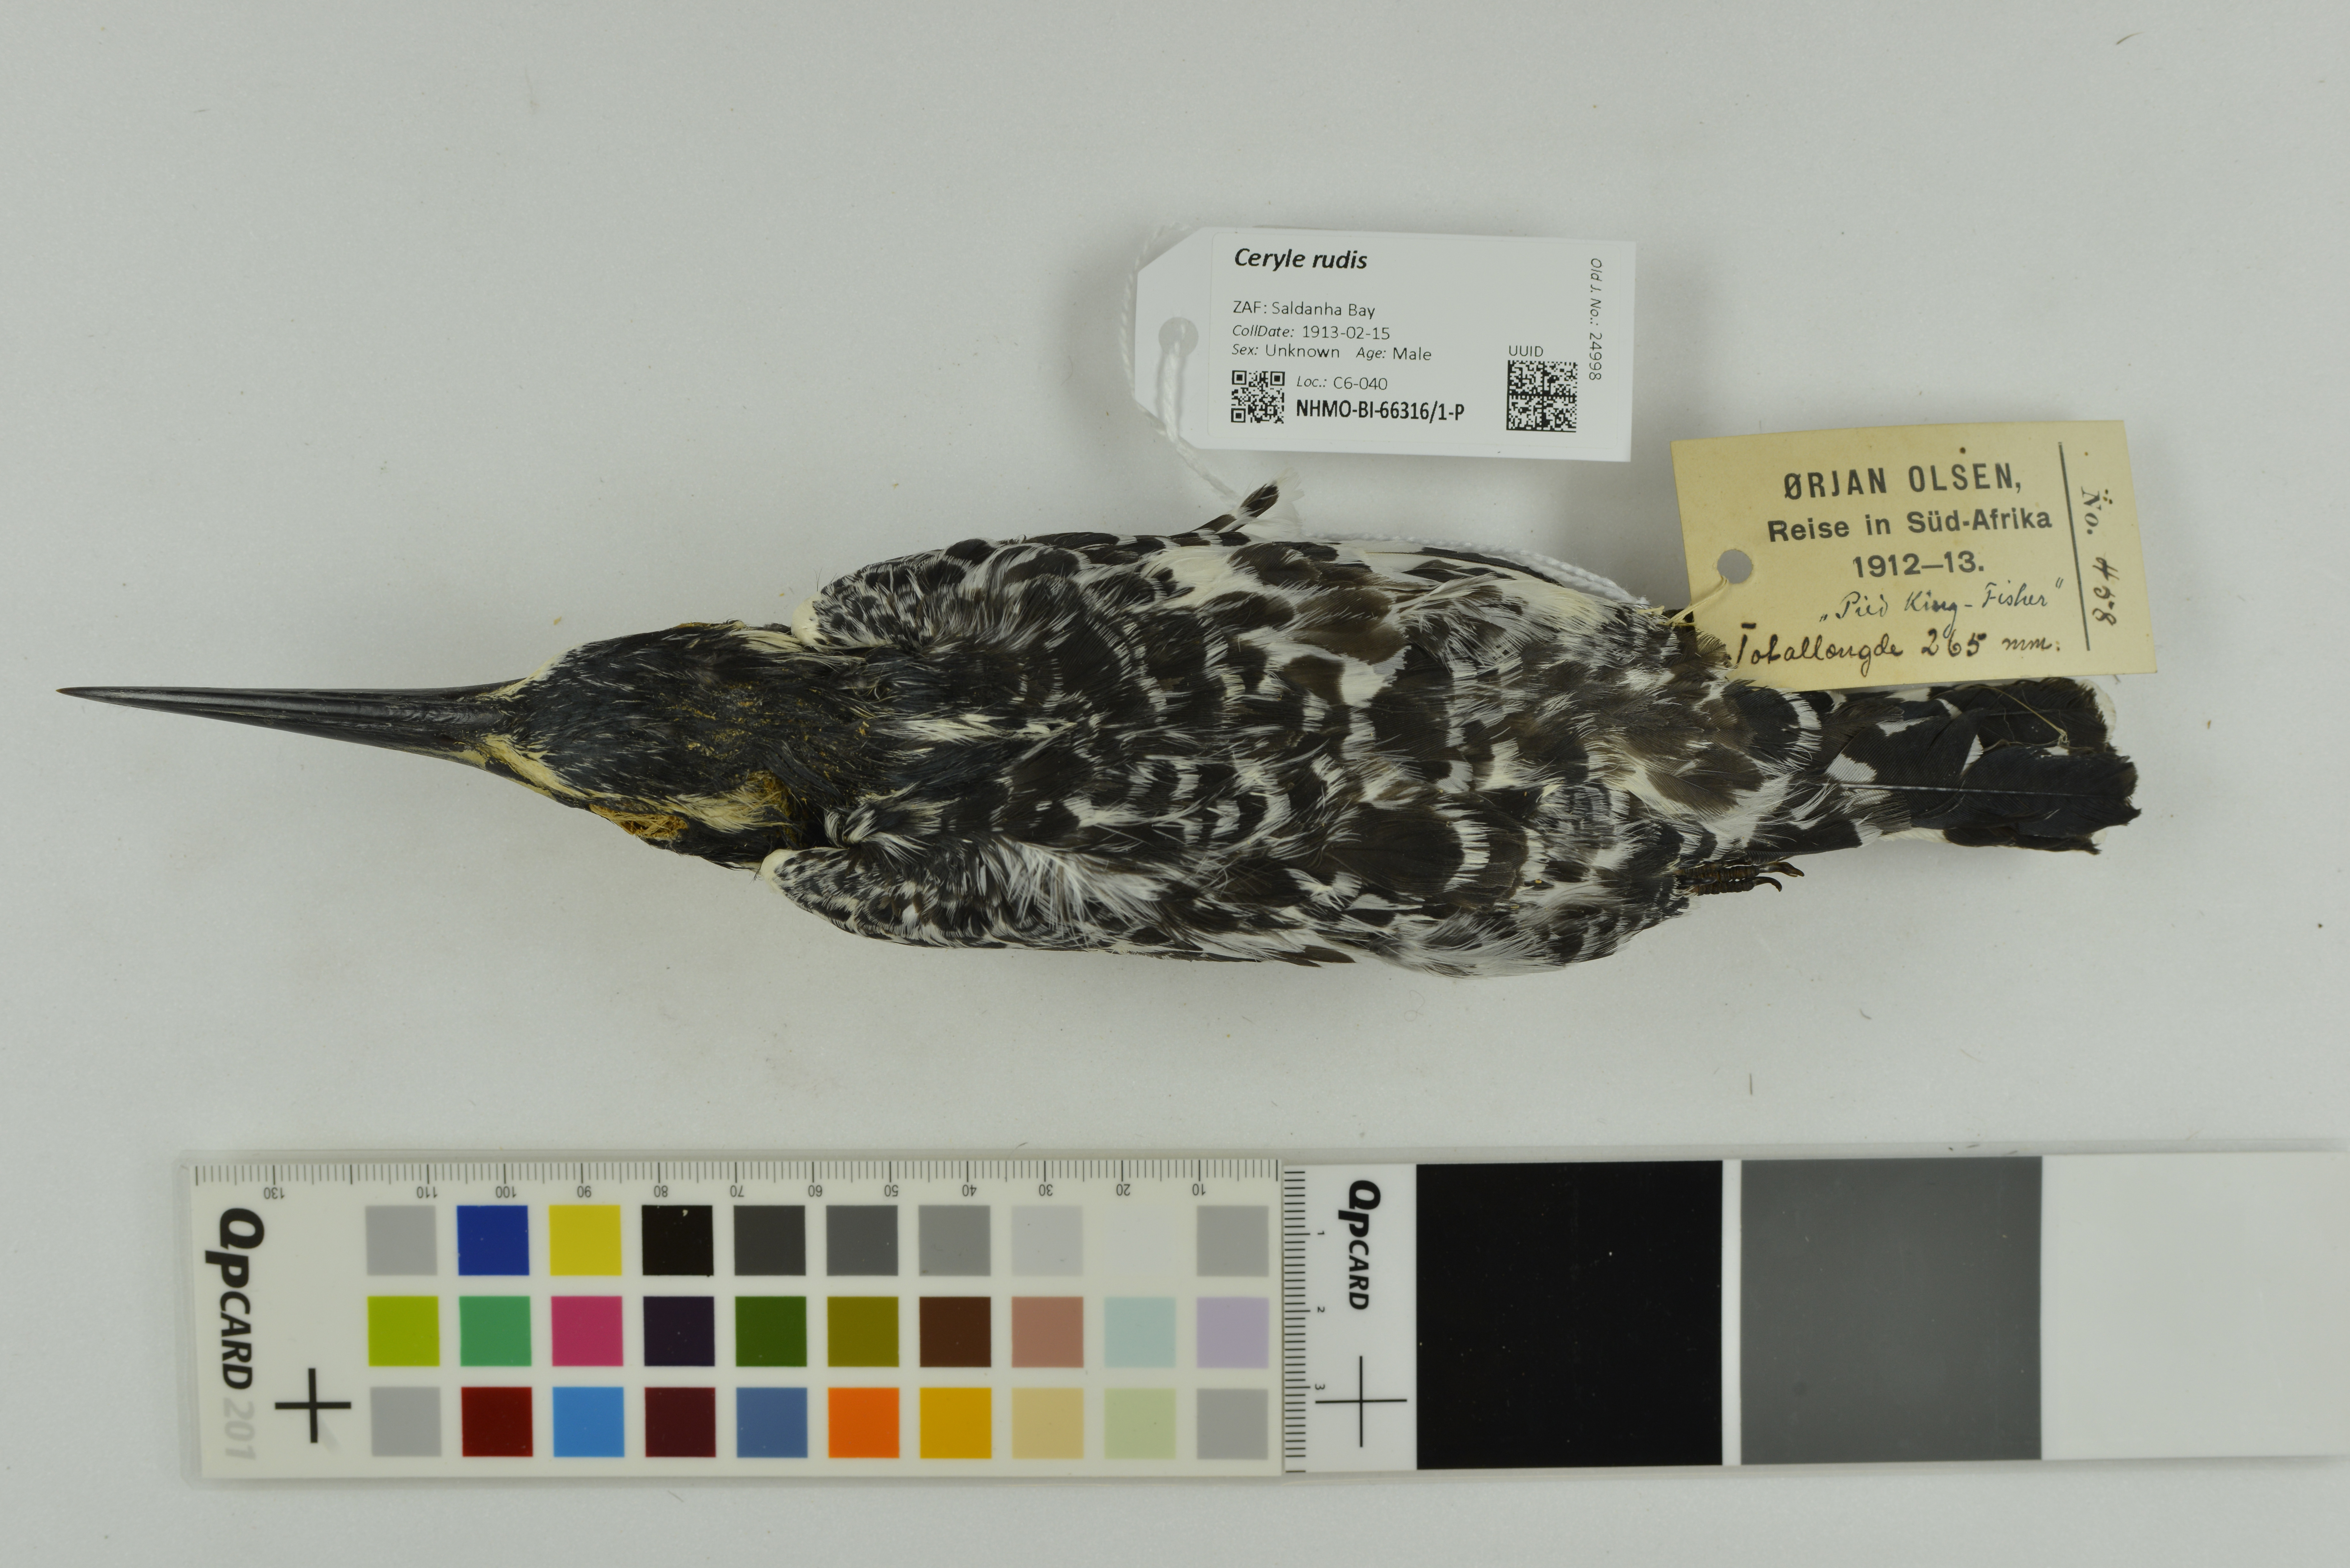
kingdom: Animalia
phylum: Chordata
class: Aves
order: Coraciiformes
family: Alcedinidae
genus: Ceryle
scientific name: Ceryle rudis
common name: Pied kingfisher
